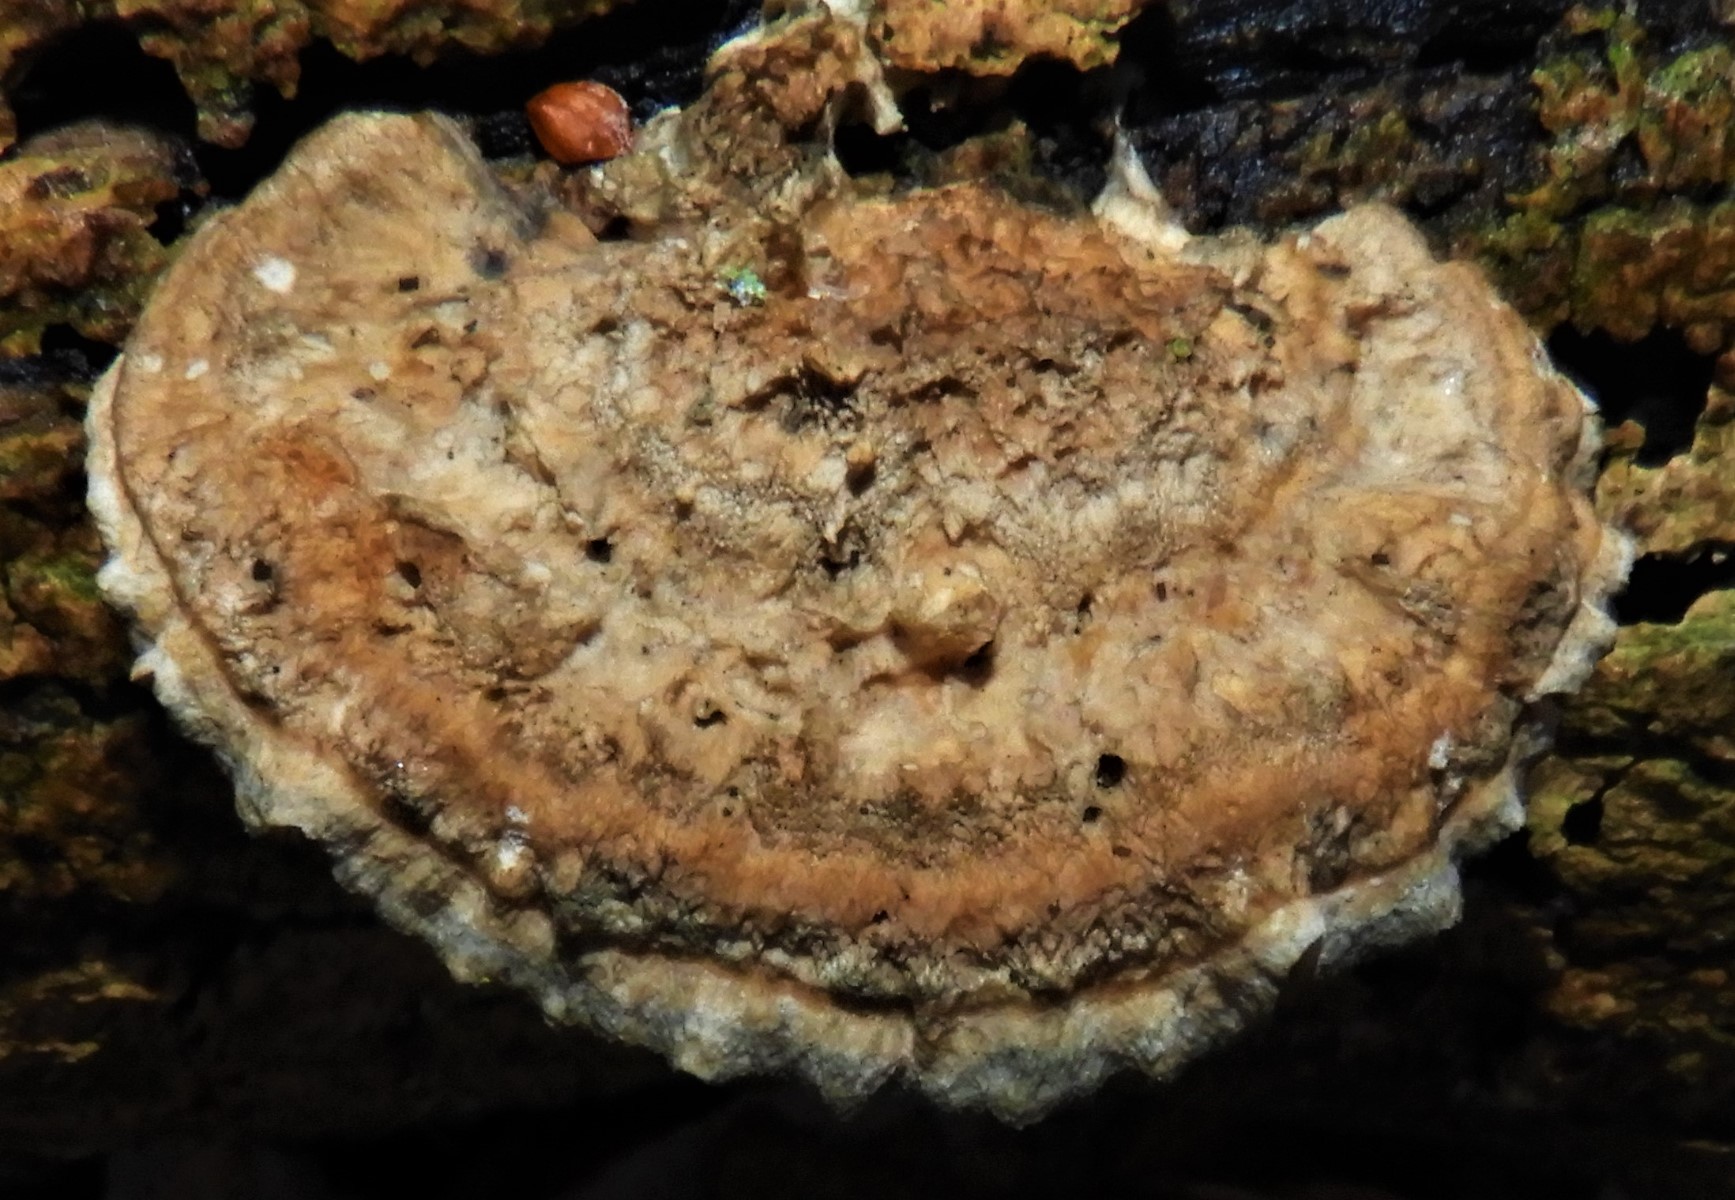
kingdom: Fungi
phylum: Basidiomycota
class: Agaricomycetes
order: Polyporales
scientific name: Polyporales
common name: poresvampordenen
